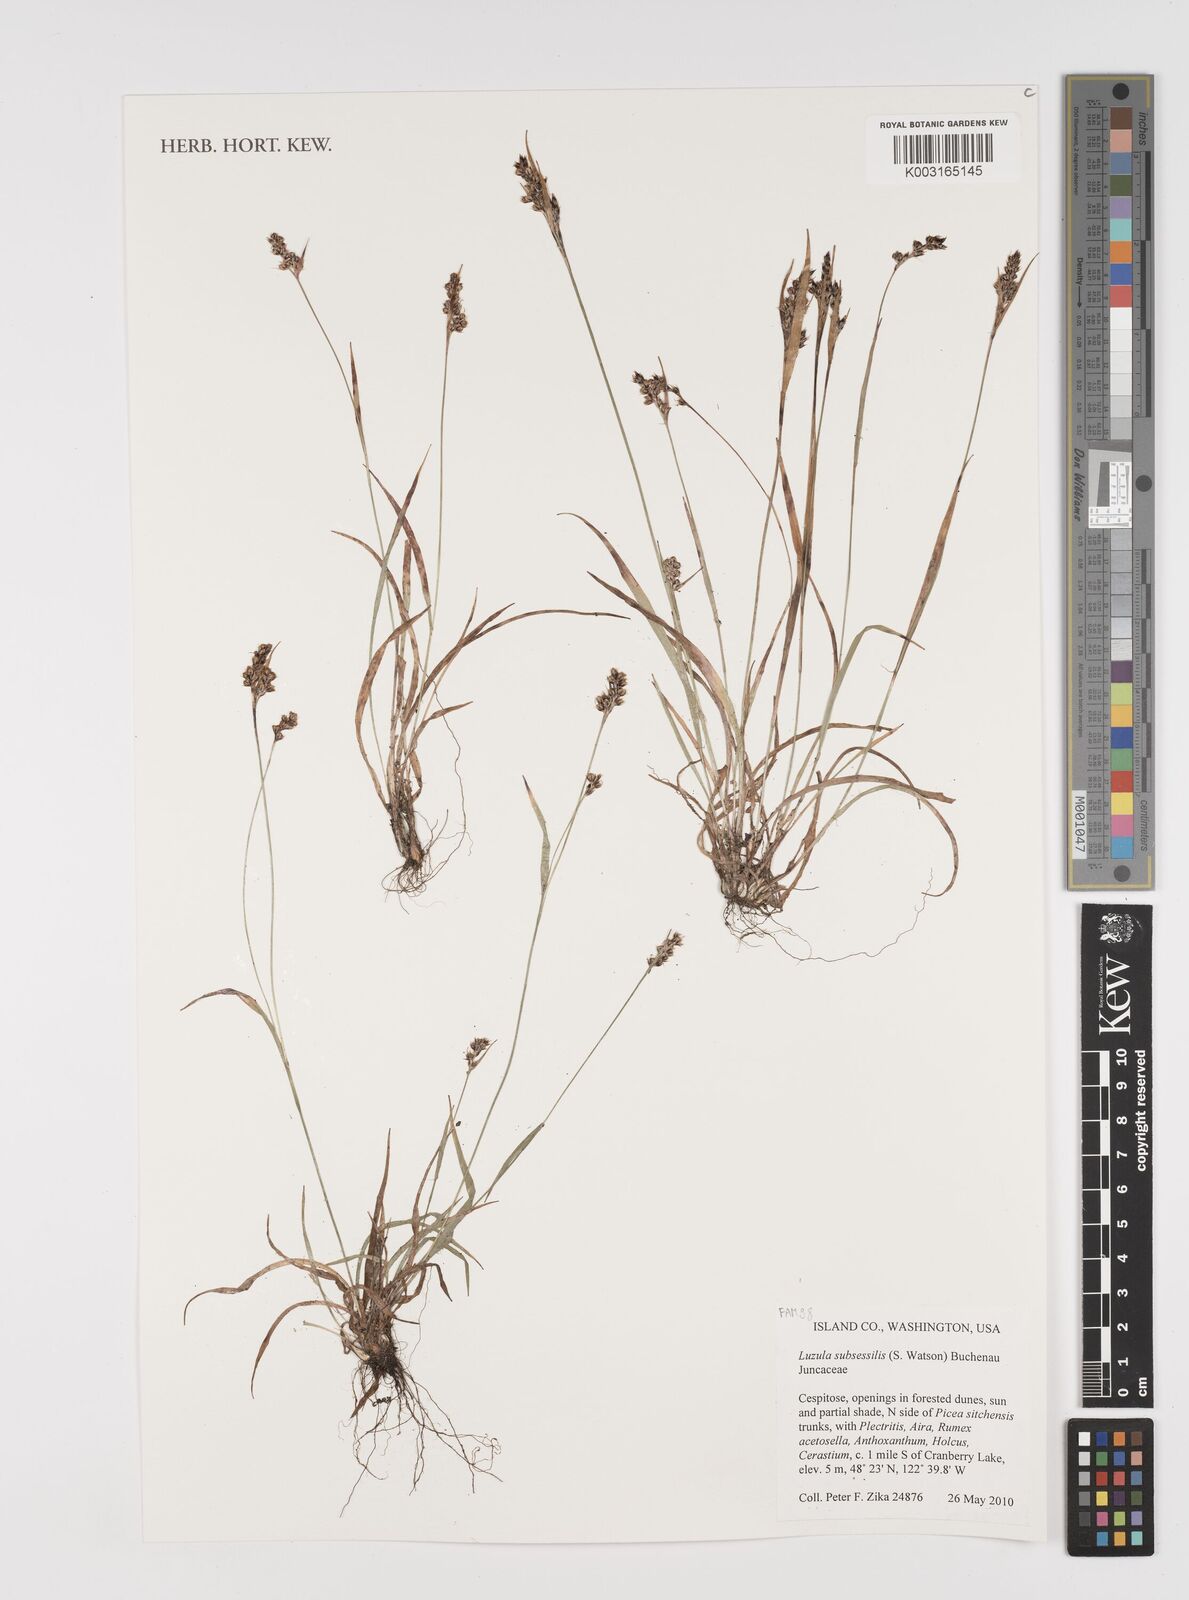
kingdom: Plantae
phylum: Tracheophyta
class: Liliopsida
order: Poales
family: Juncaceae
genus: Luzula
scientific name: Luzula macrantha
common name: Large-anthered woodrush
